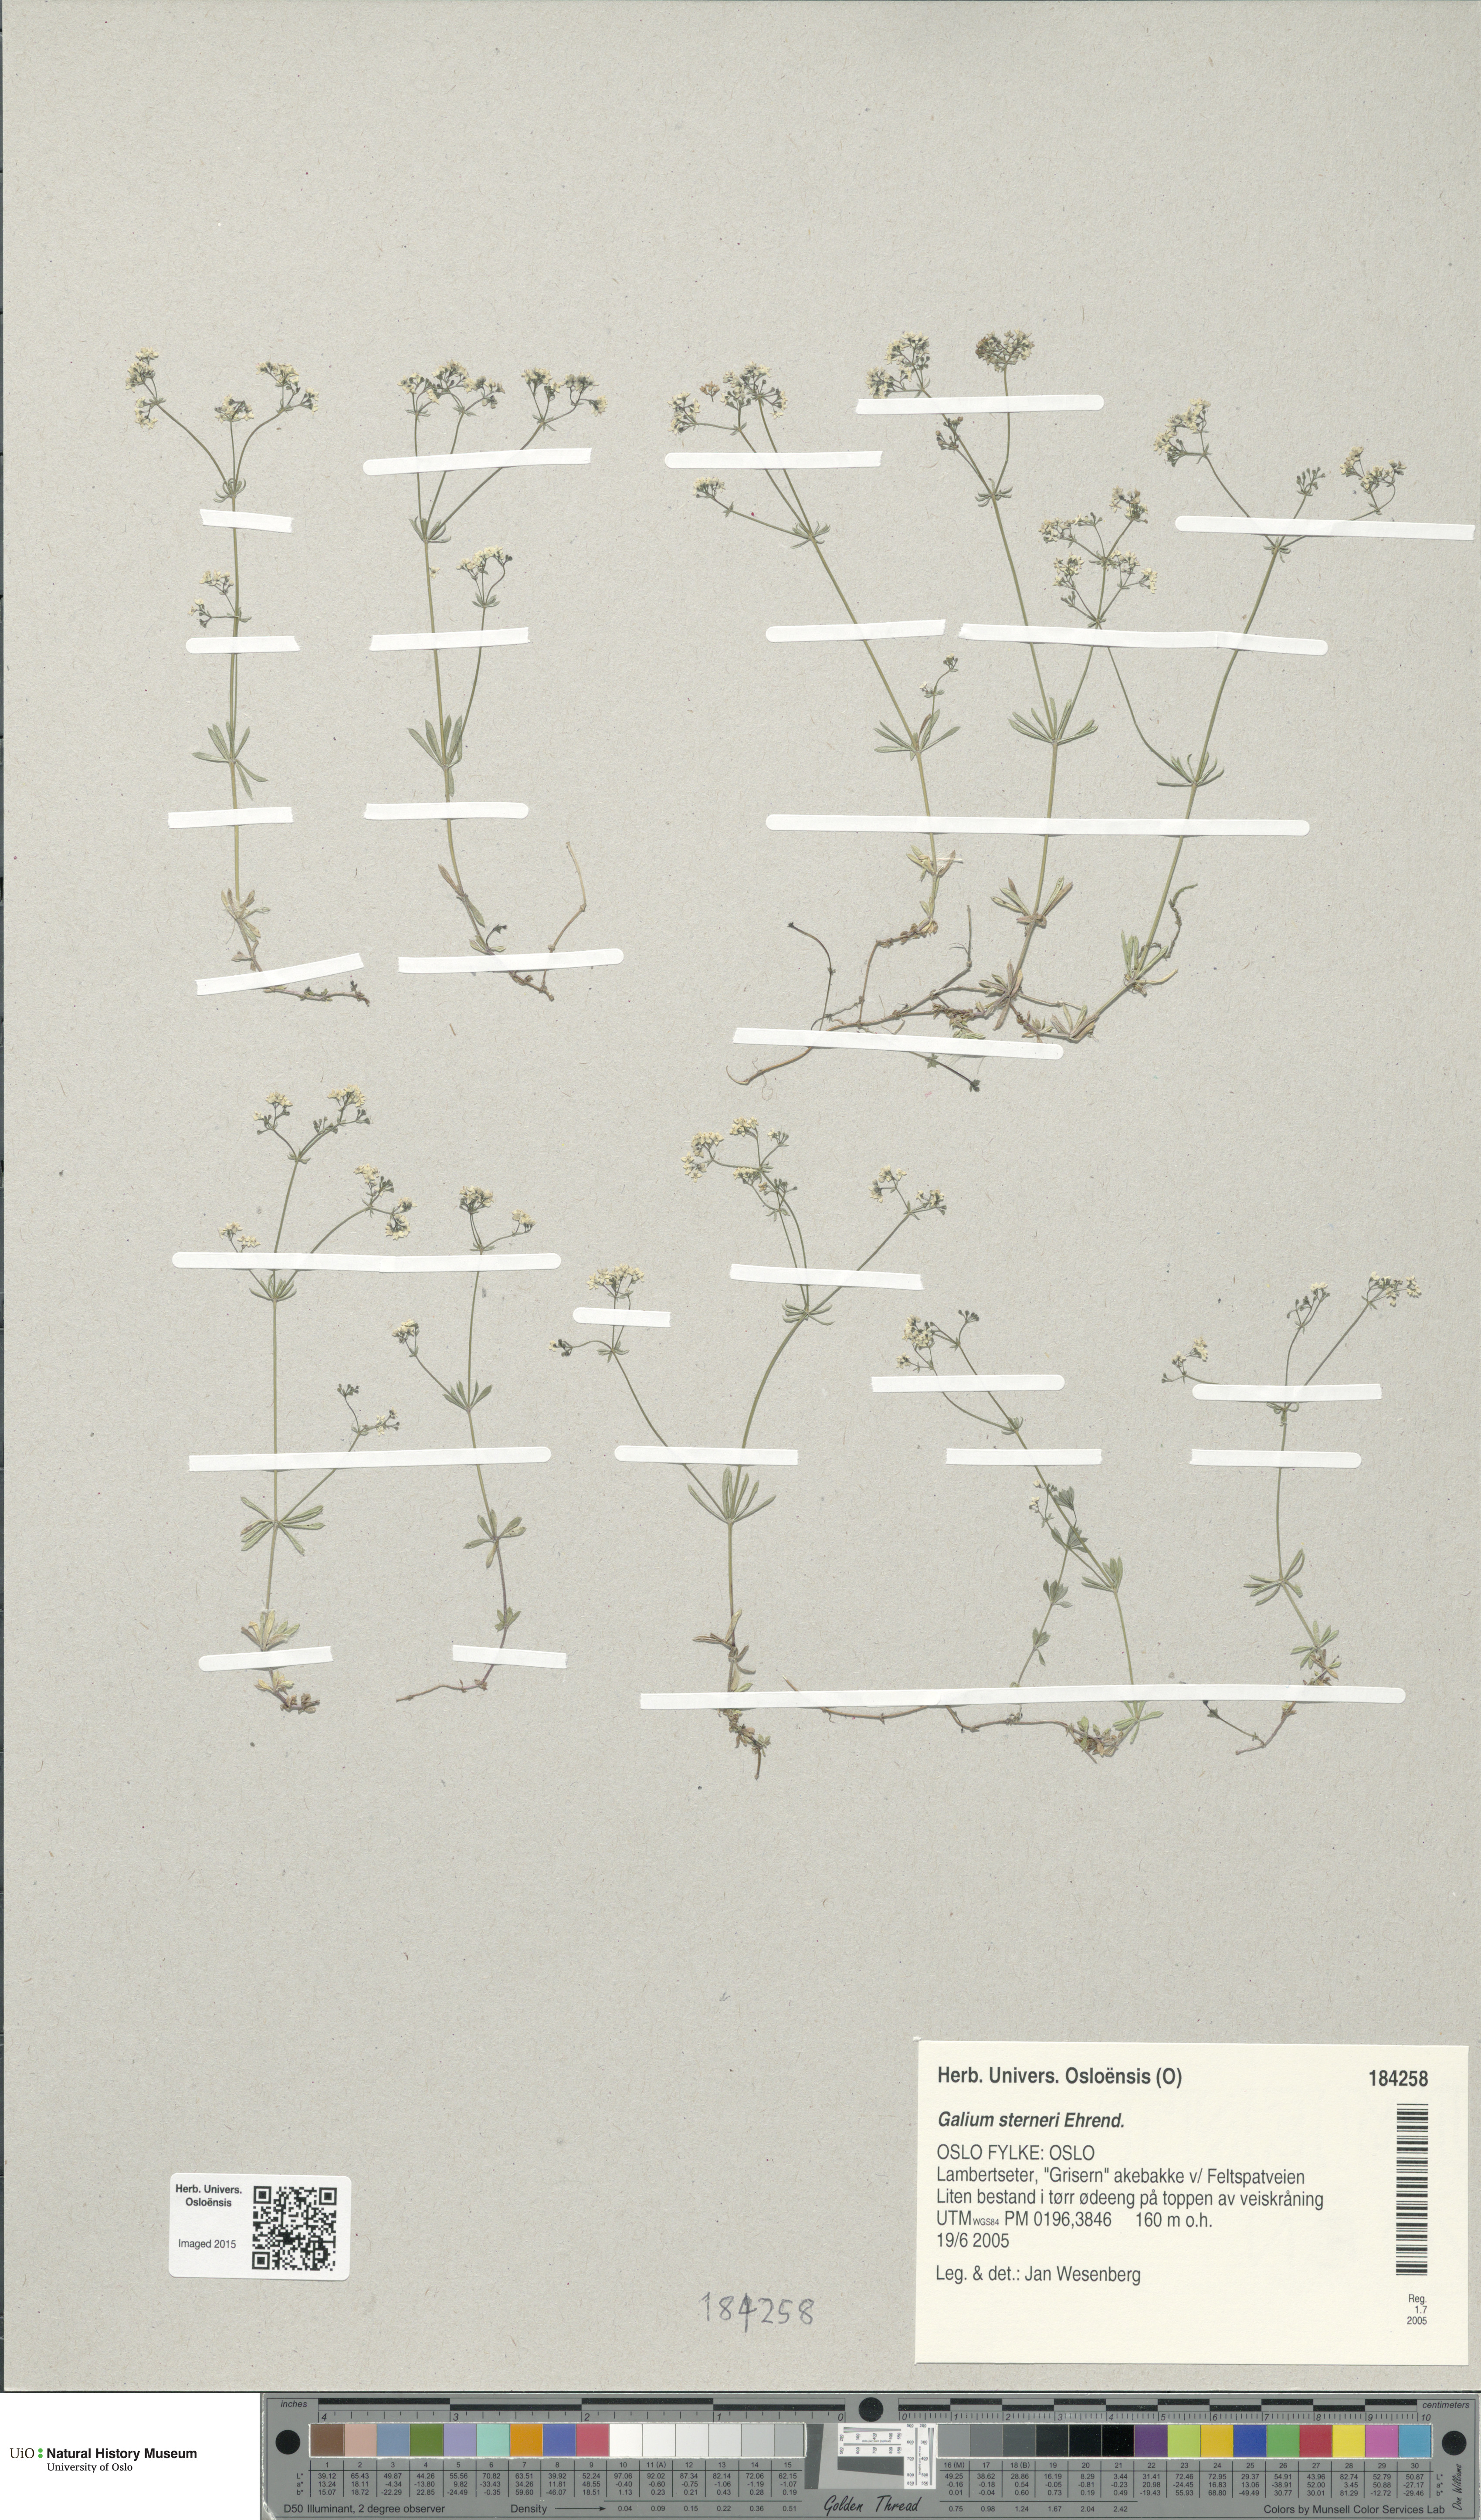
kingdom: Plantae
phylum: Tracheophyta
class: Magnoliopsida
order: Gentianales
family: Rubiaceae
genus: Galium
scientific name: Galium sterneri
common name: Limestone bedstraw
